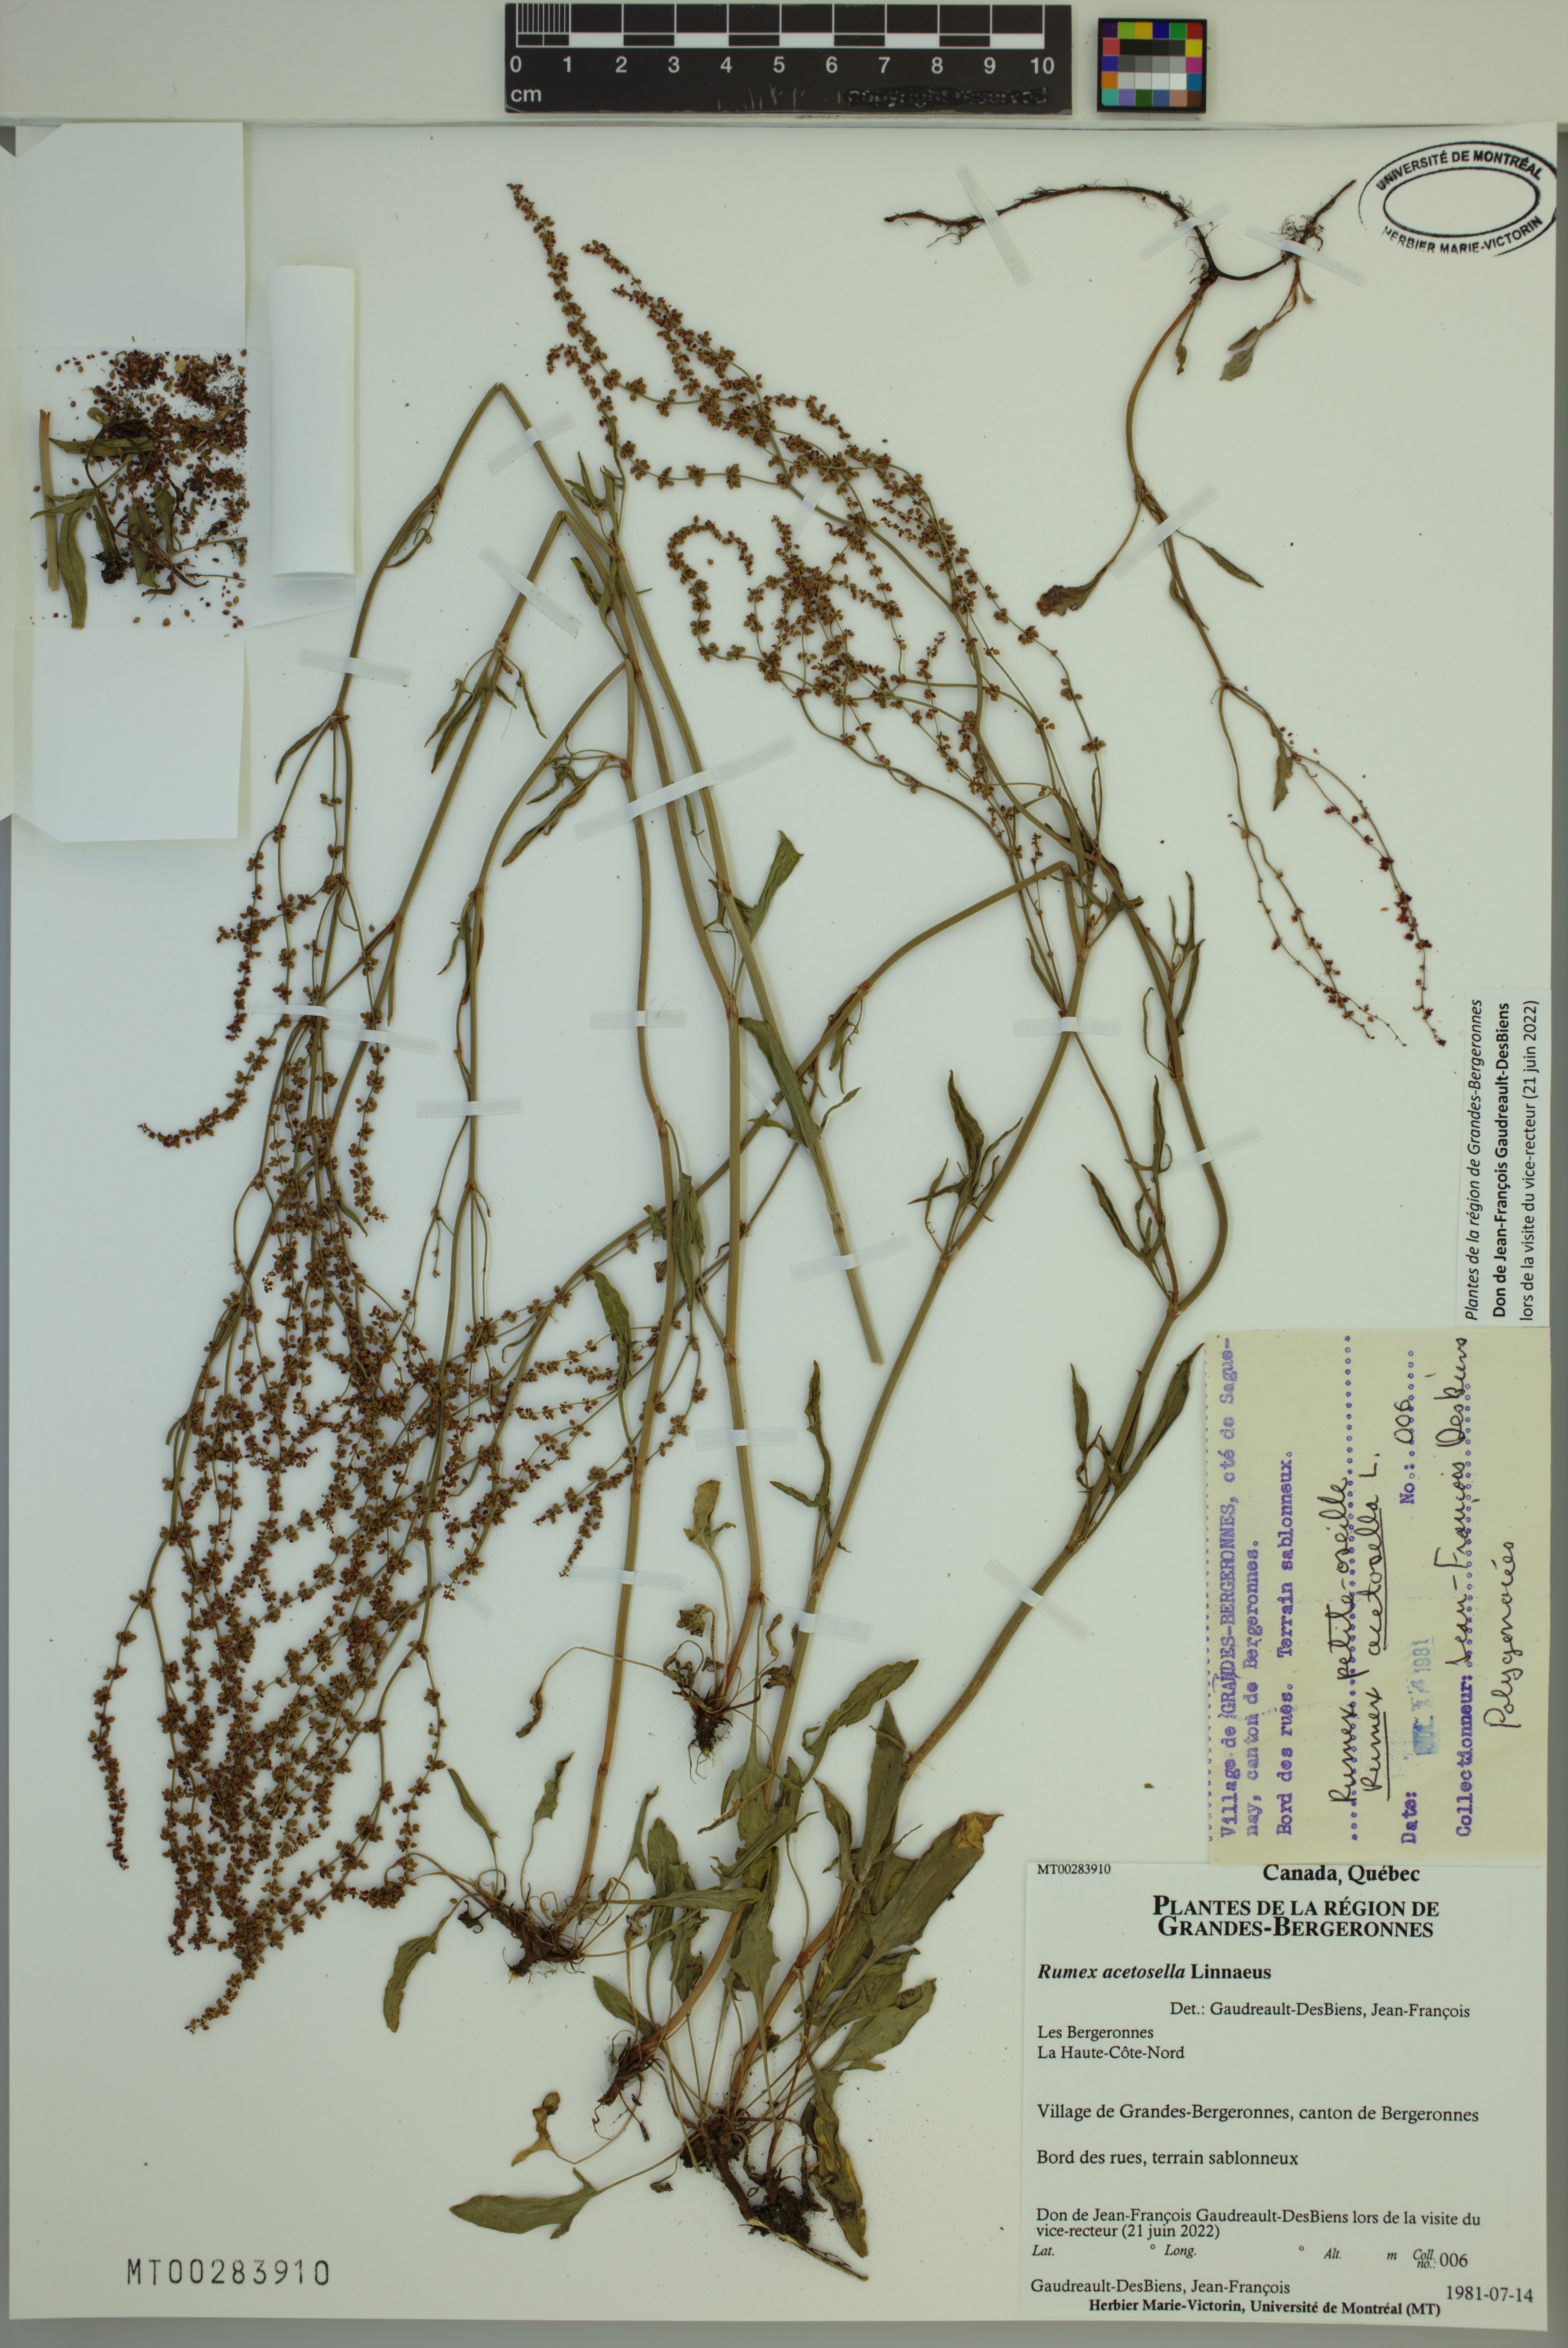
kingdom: Plantae
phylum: Tracheophyta
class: Magnoliopsida
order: Caryophyllales
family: Polygonaceae
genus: Rumex
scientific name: Rumex acetosella
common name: Common sheep sorrel
